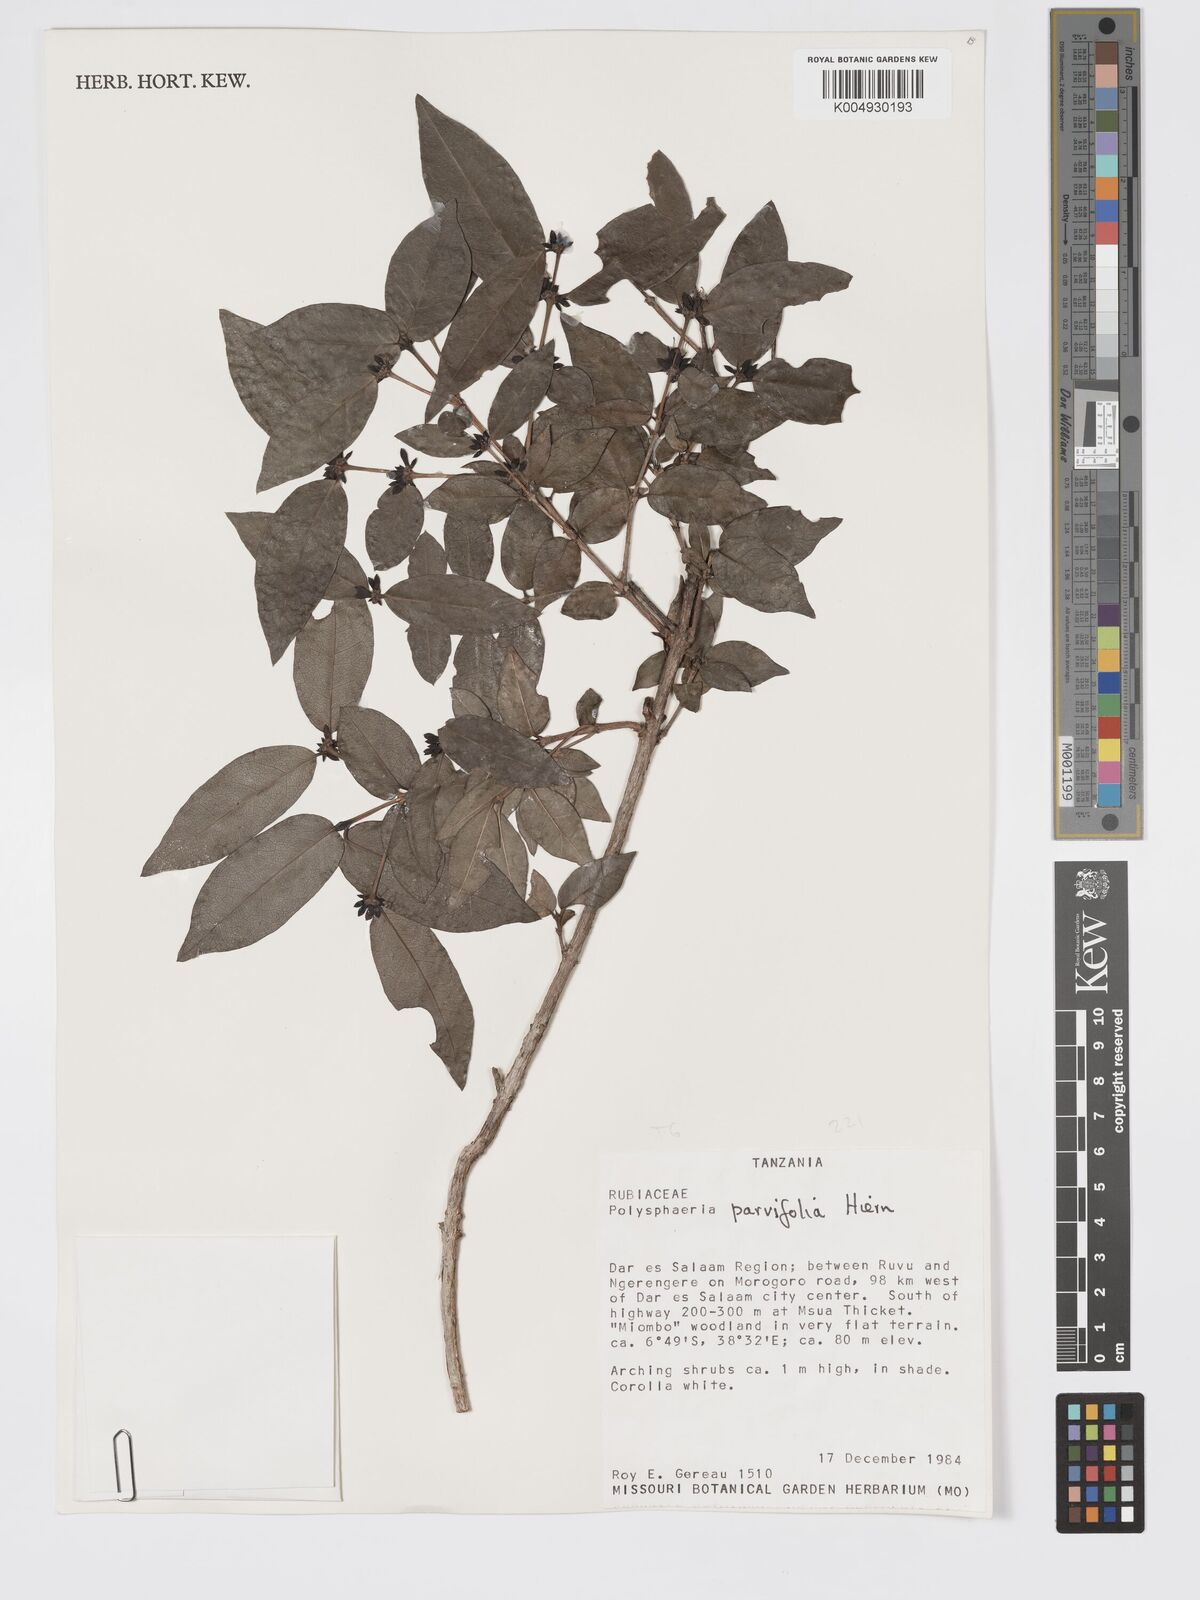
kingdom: Plantae
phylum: Tracheophyta
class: Magnoliopsida
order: Gentianales
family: Rubiaceae
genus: Polysphaeria
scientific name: Polysphaeria parvifolia
